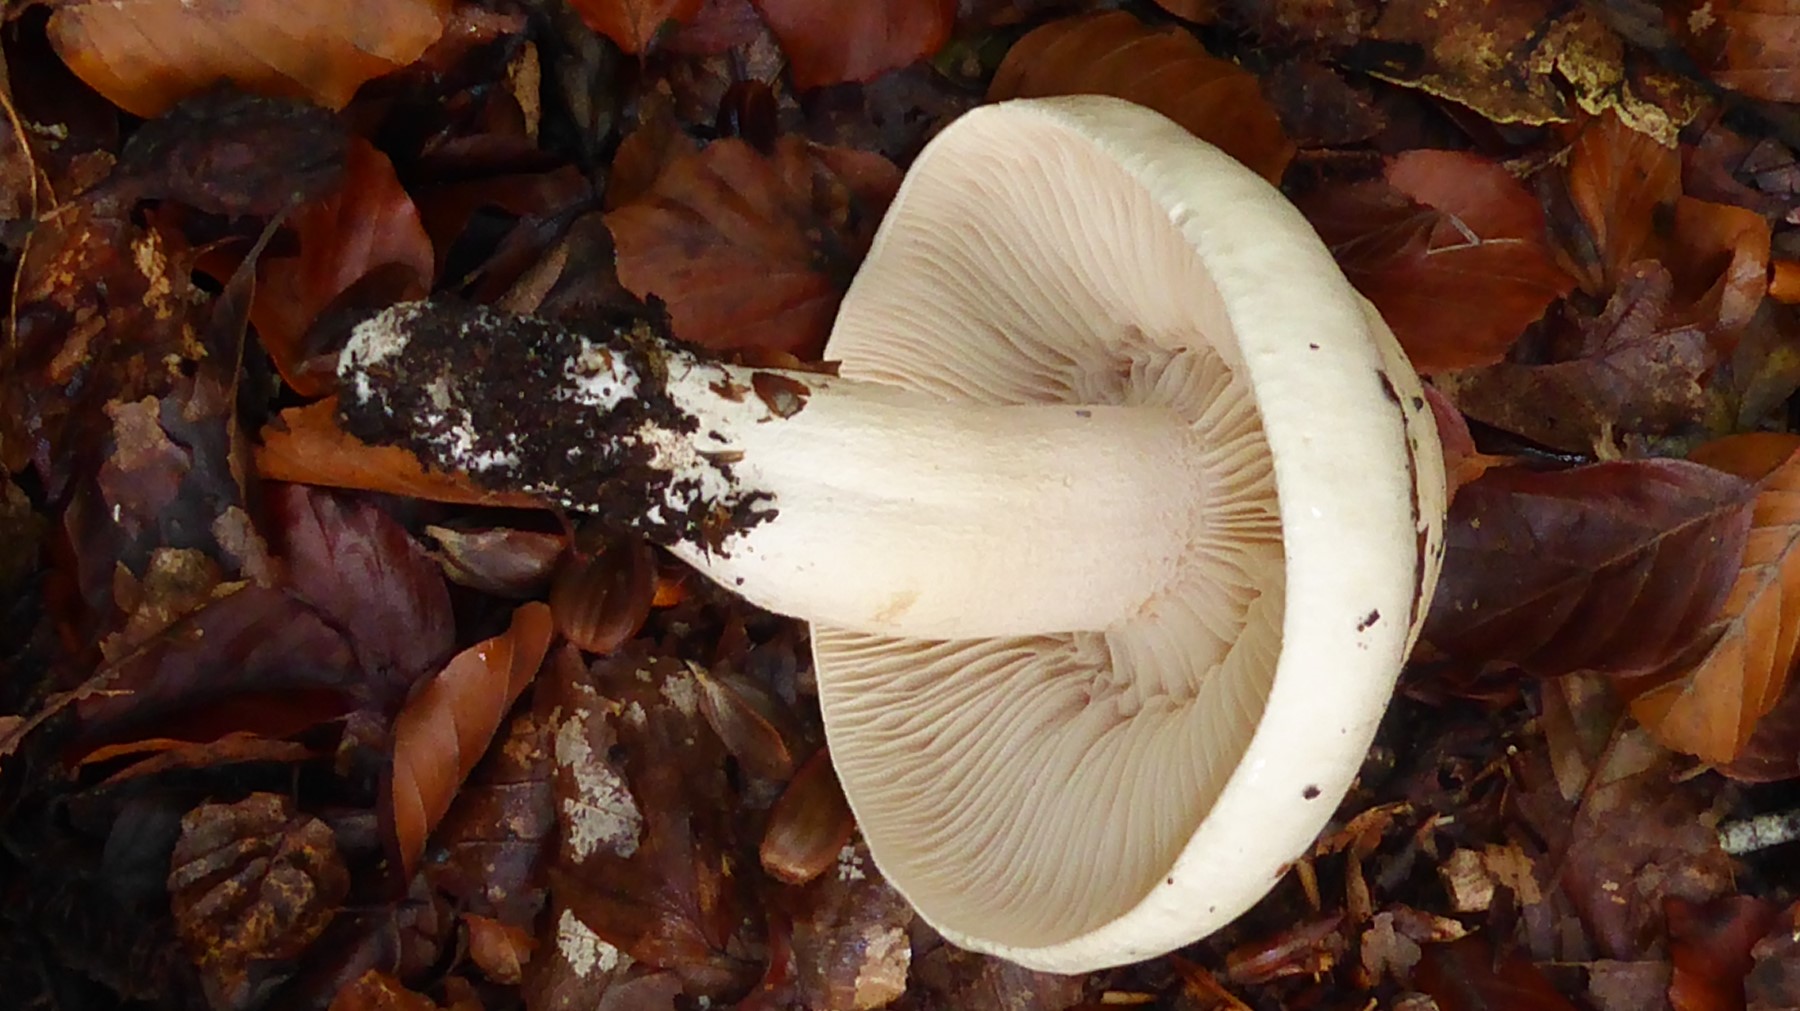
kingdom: Fungi
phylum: Basidiomycota
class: Agaricomycetes
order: Agaricales
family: Hygrophoraceae
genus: Hygrophorus
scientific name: Hygrophorus penarius
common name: spiselig sneglehat
